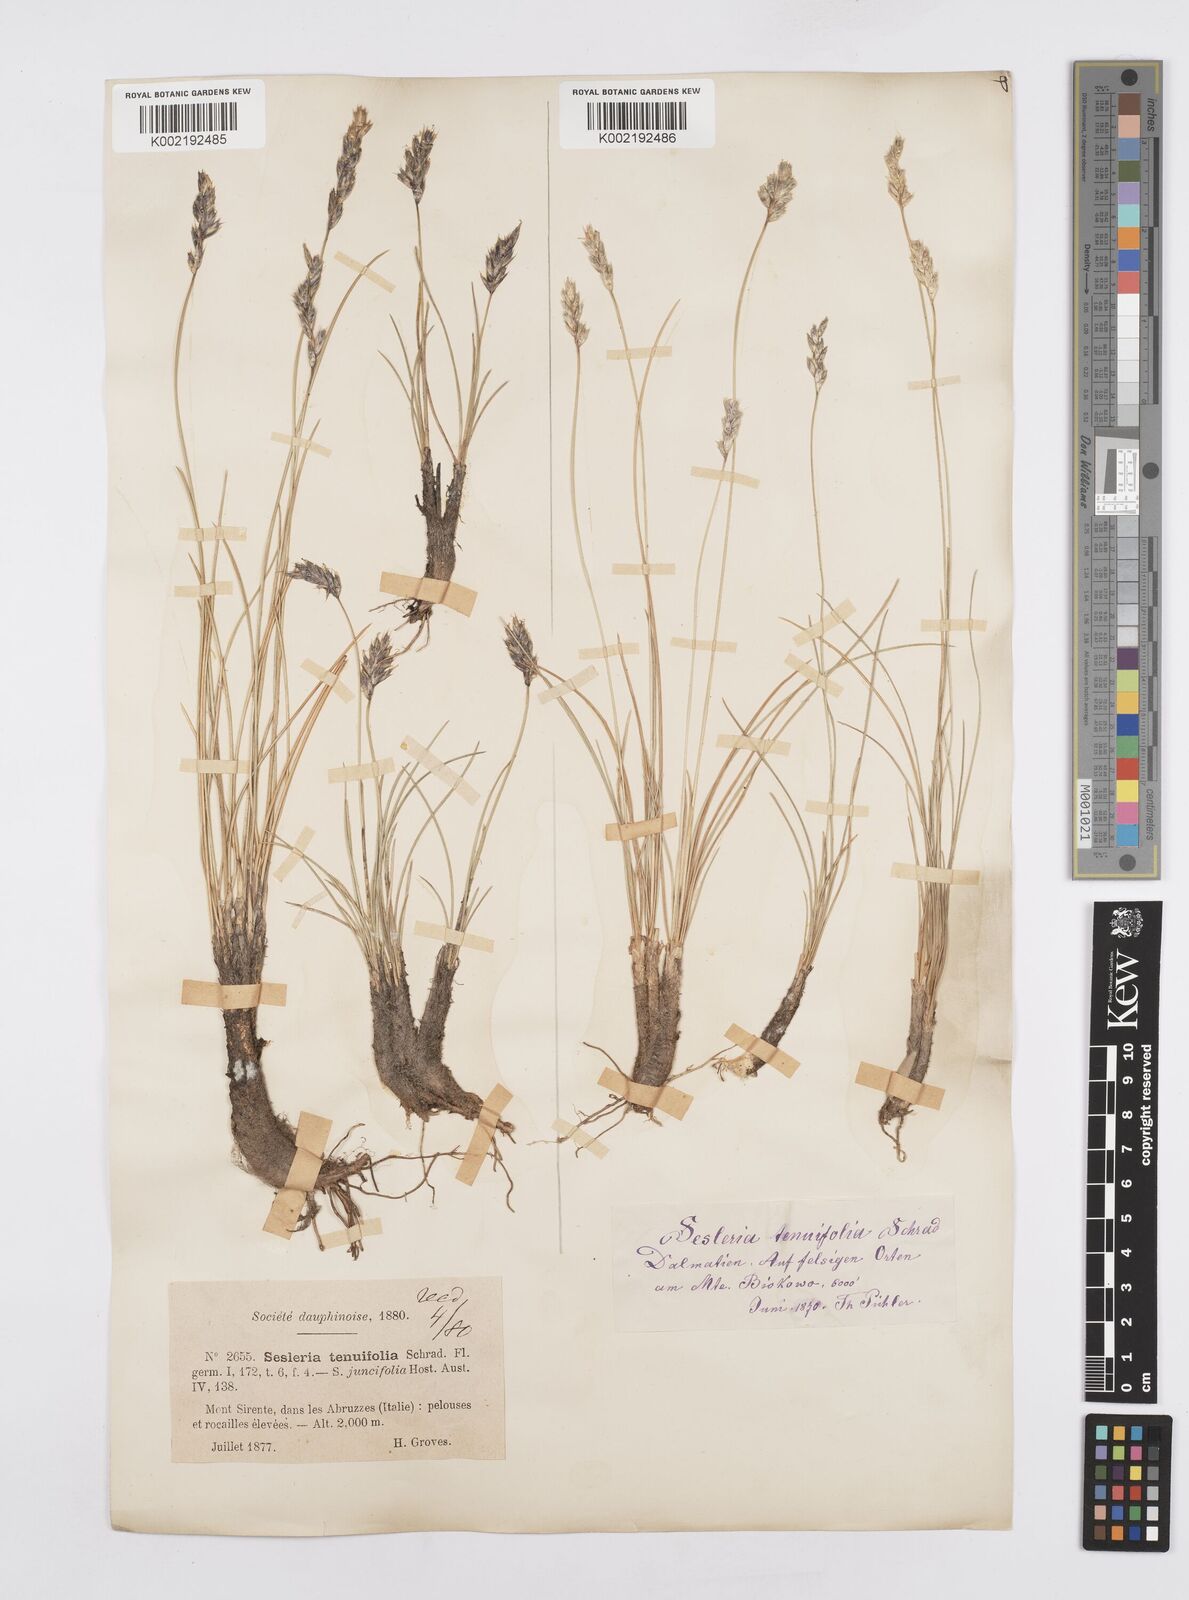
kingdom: Plantae
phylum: Tracheophyta
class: Liliopsida
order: Poales
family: Poaceae
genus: Sesleria
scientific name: Sesleria juncifolia
